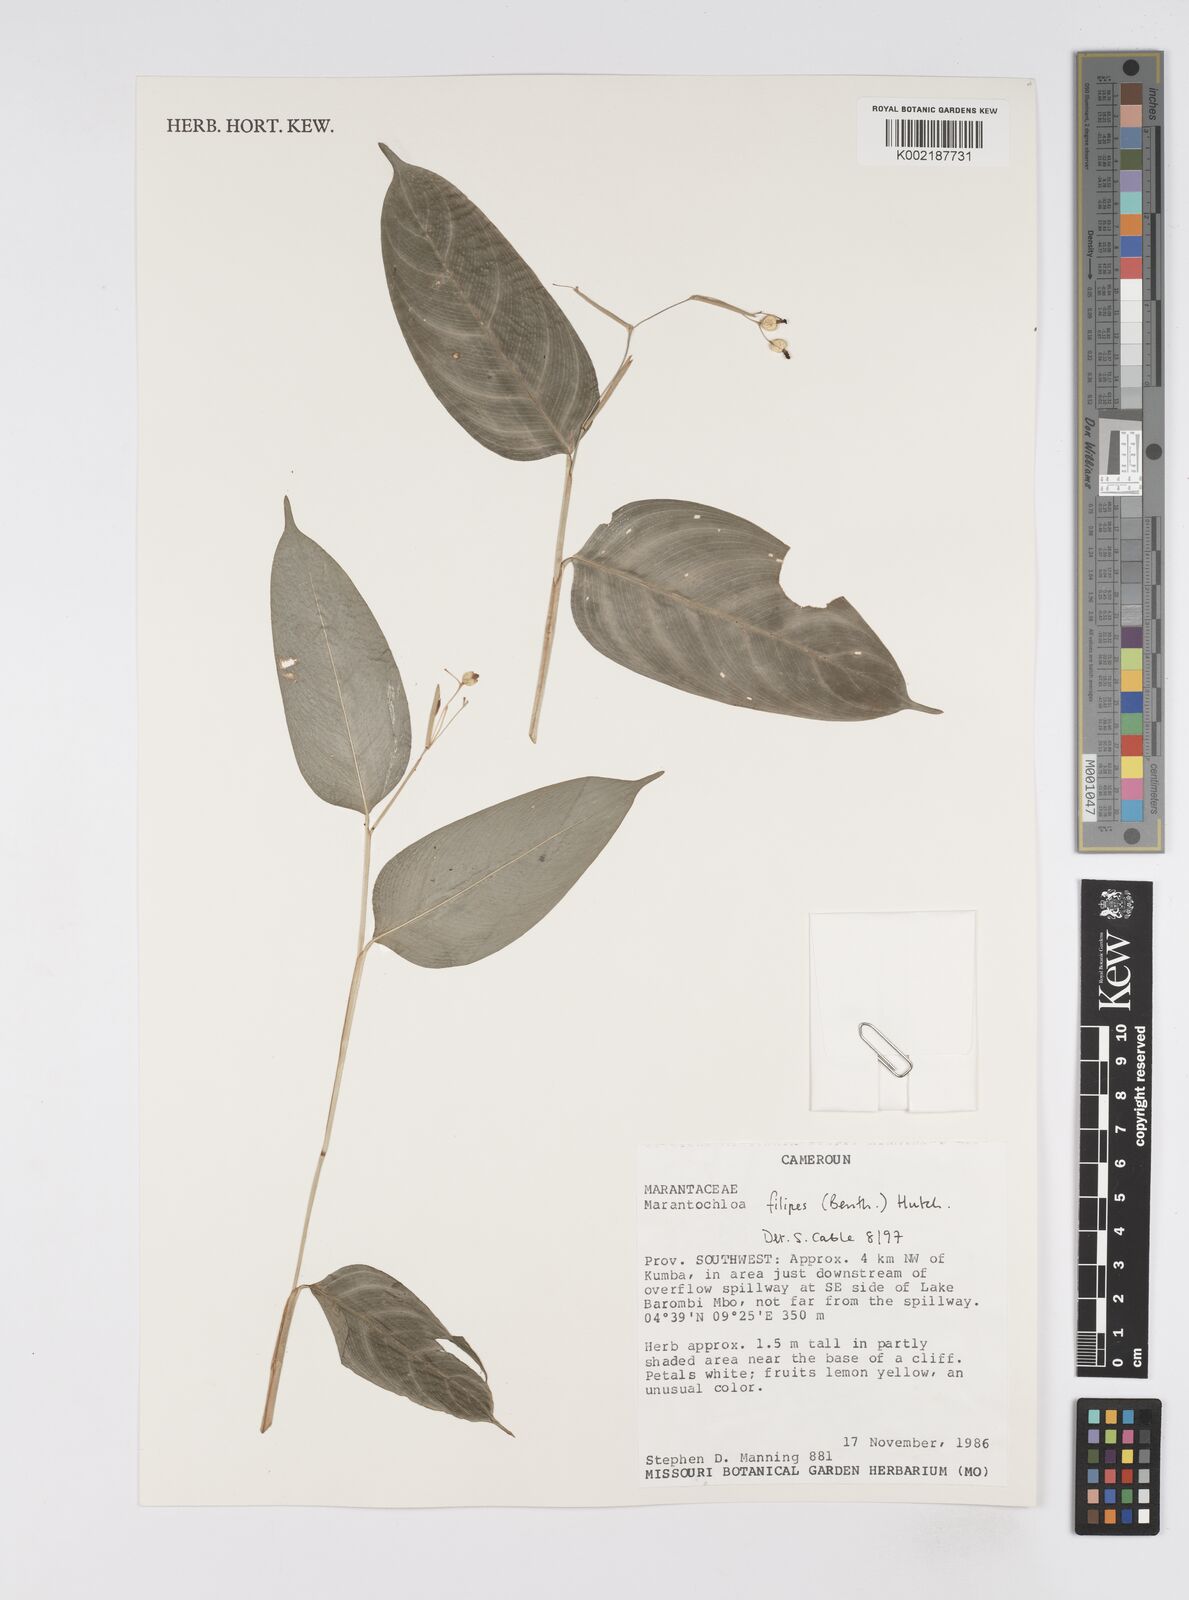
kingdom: Plantae
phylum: Tracheophyta
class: Liliopsida
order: Zingiberales
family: Marantaceae
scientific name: Marantaceae
